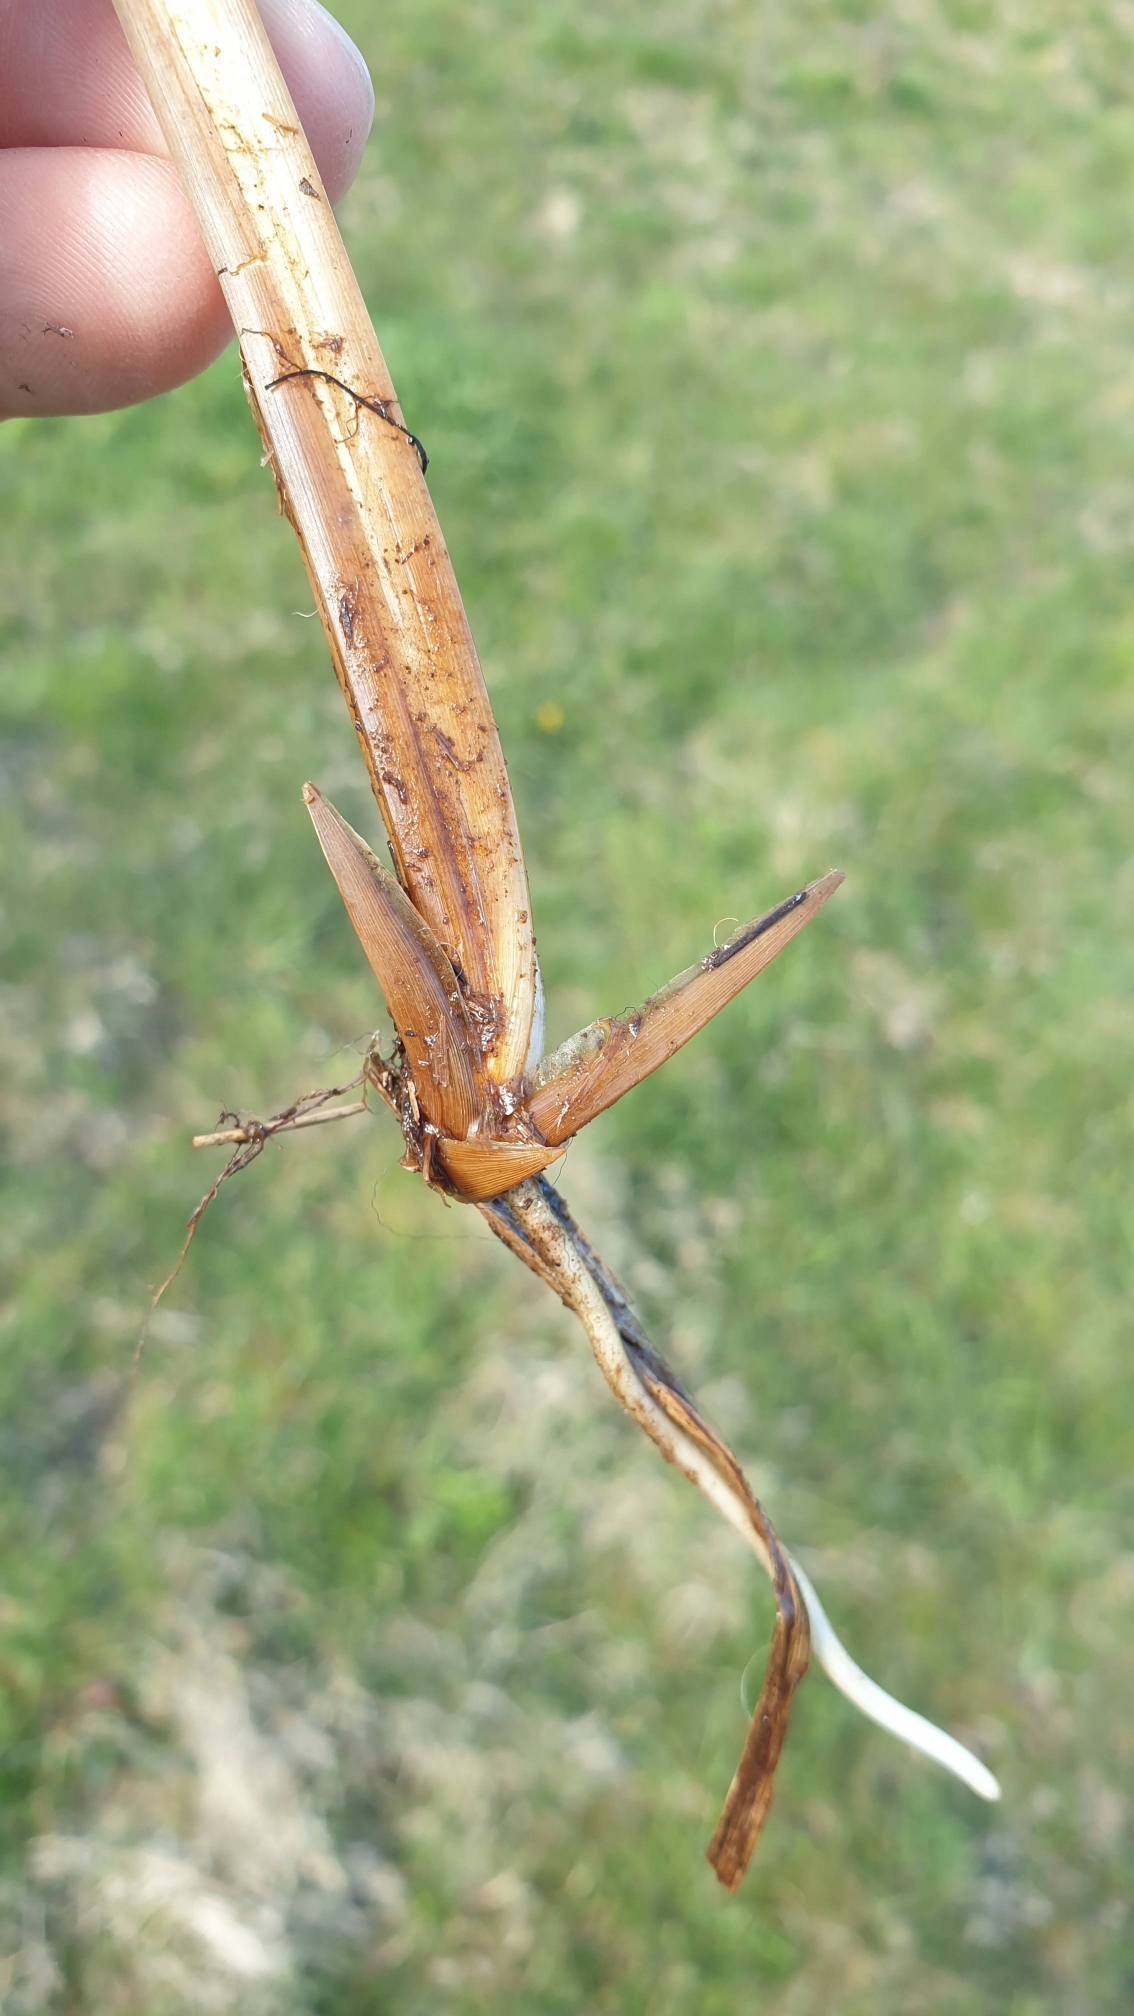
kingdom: Plantae
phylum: Tracheophyta
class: Liliopsida
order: Poales
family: Cyperaceae
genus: Carex
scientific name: Carex elata
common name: Stiv star
